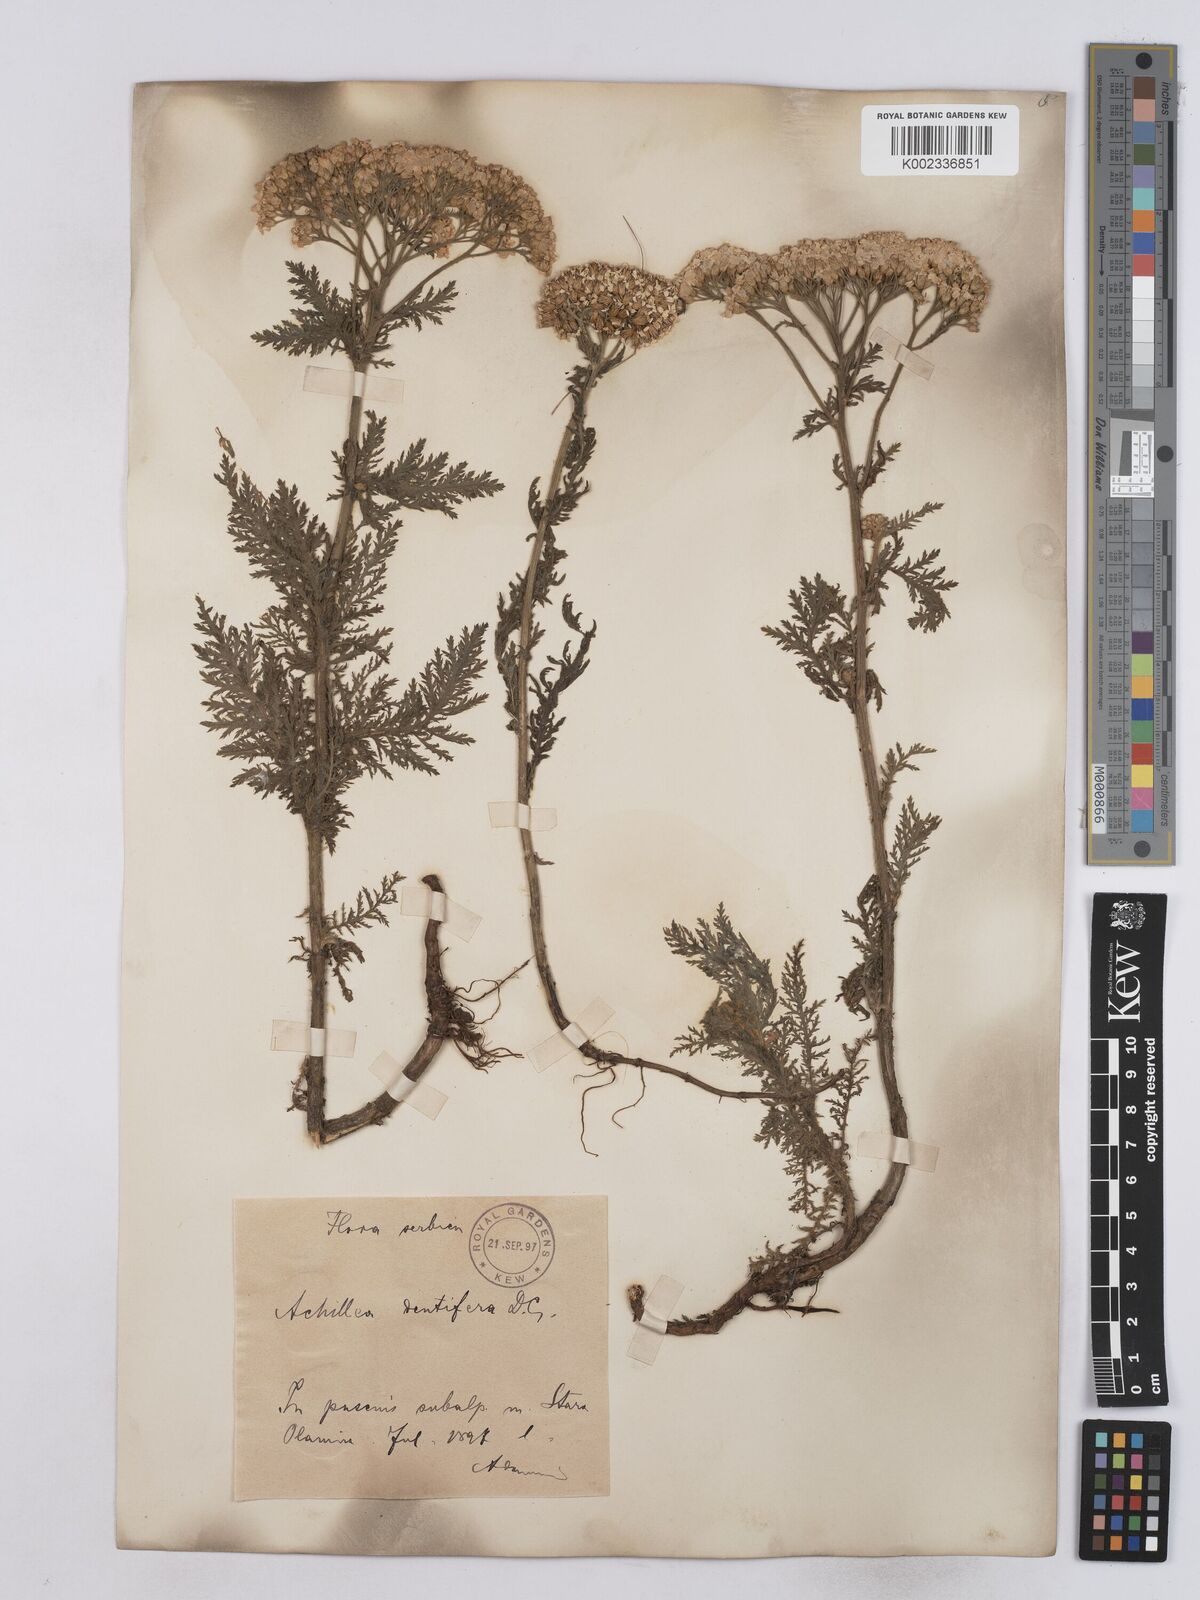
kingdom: Plantae
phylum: Tracheophyta
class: Magnoliopsida
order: Asterales
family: Asteraceae
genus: Achillea
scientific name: Achillea crithmifolia
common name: Yarrow
